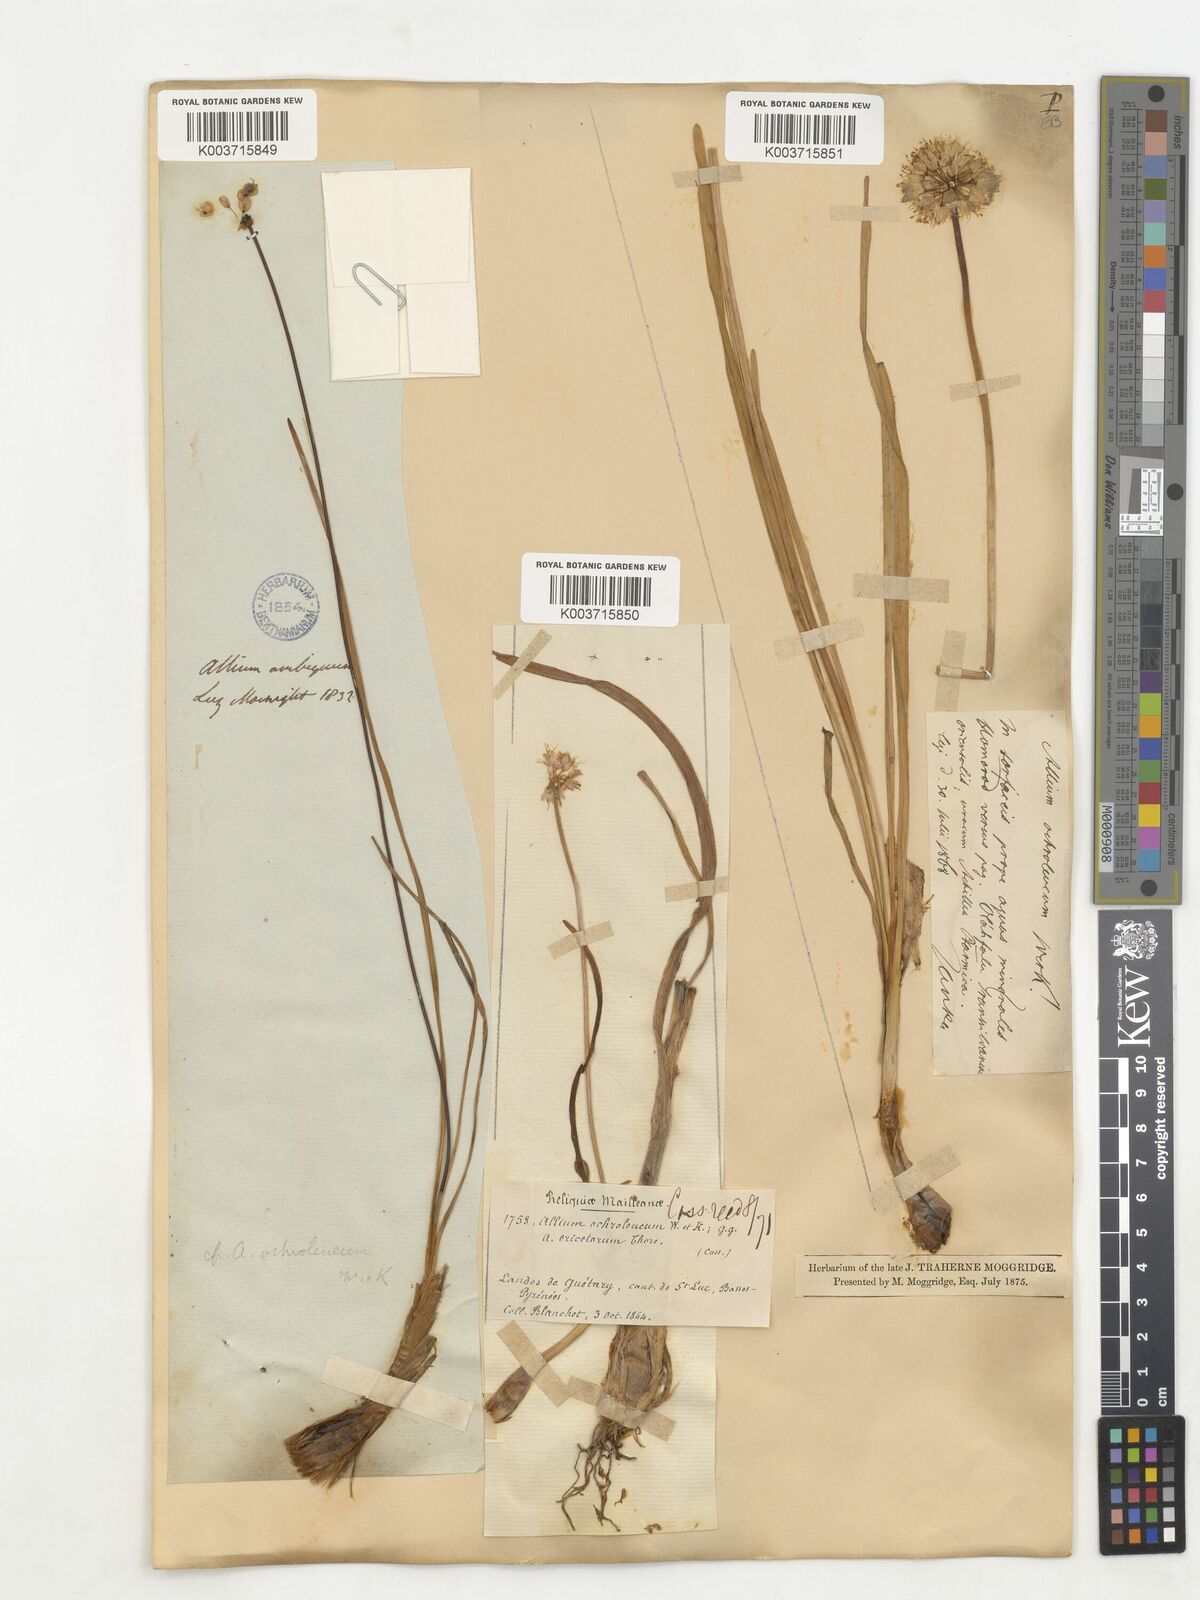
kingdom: Plantae
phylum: Tracheophyta
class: Liliopsida
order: Asparagales
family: Amaryllidaceae
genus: Allium
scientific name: Allium ericetorum
